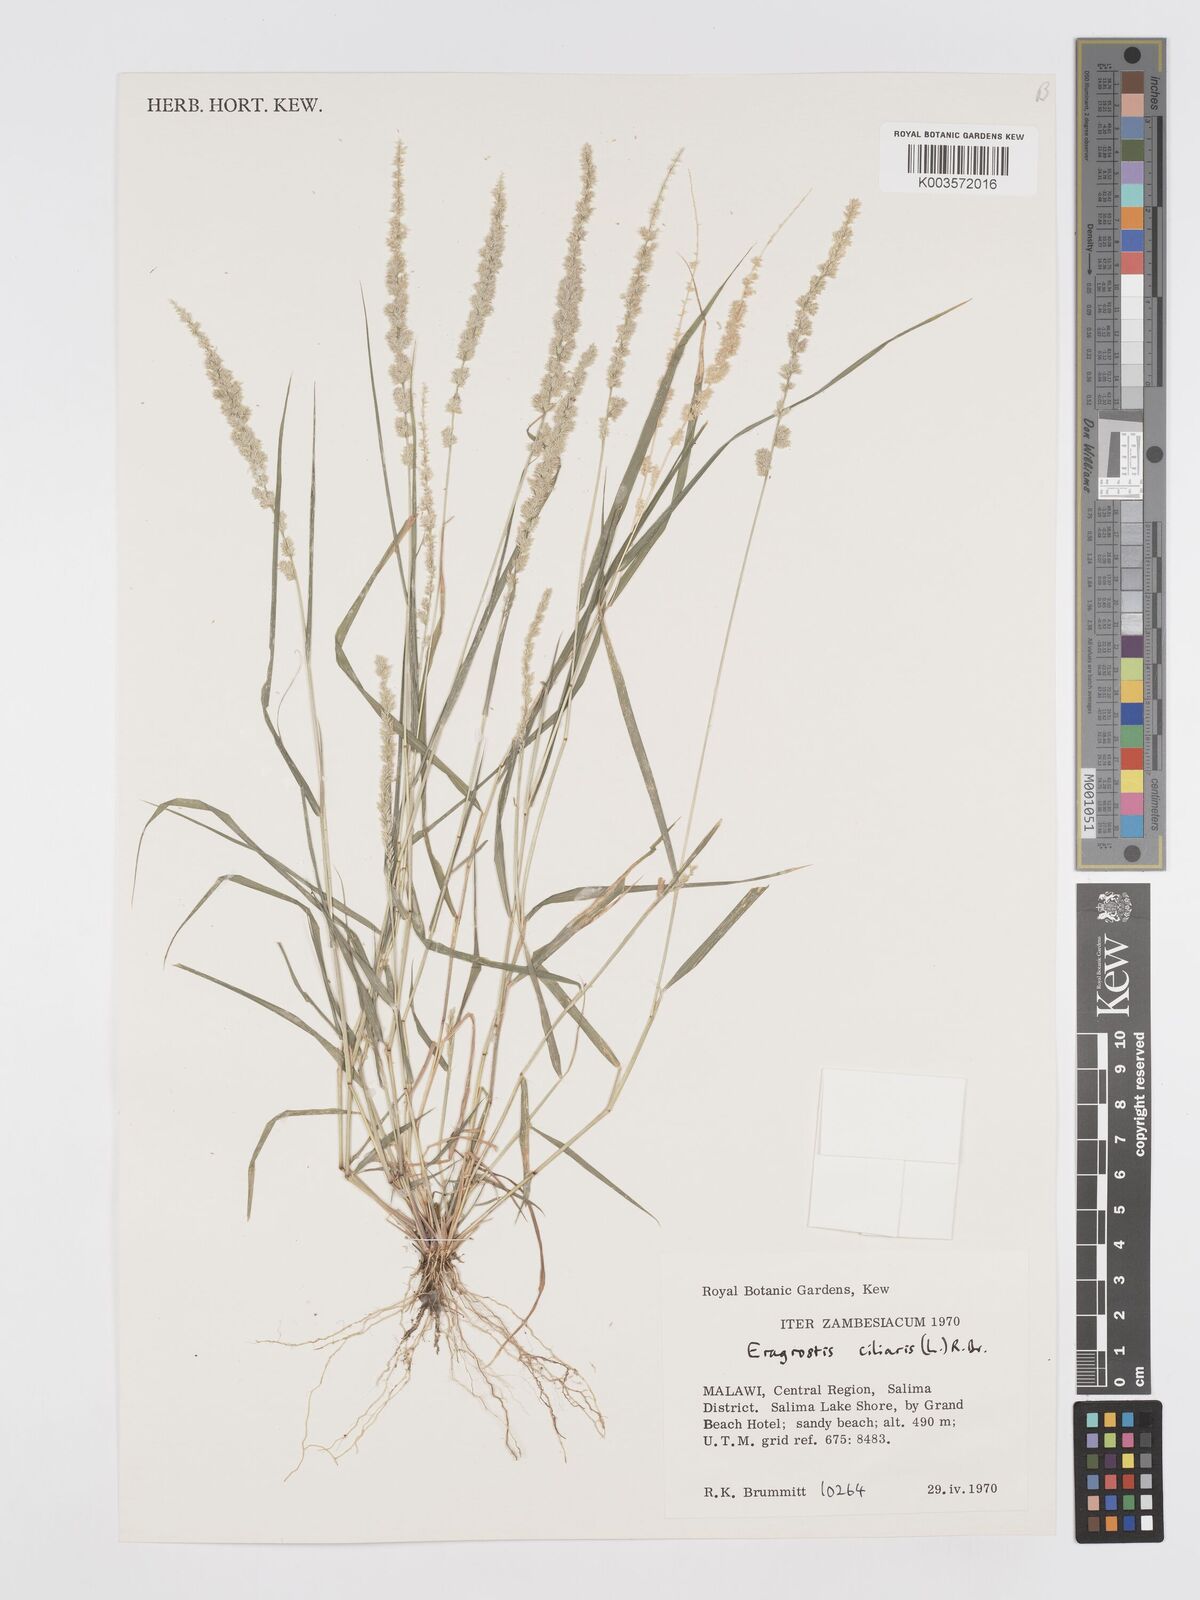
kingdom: Plantae
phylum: Tracheophyta
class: Liliopsida
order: Poales
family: Poaceae
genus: Eragrostis
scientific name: Eragrostis ciliaris
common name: Gophertail lovegrass
